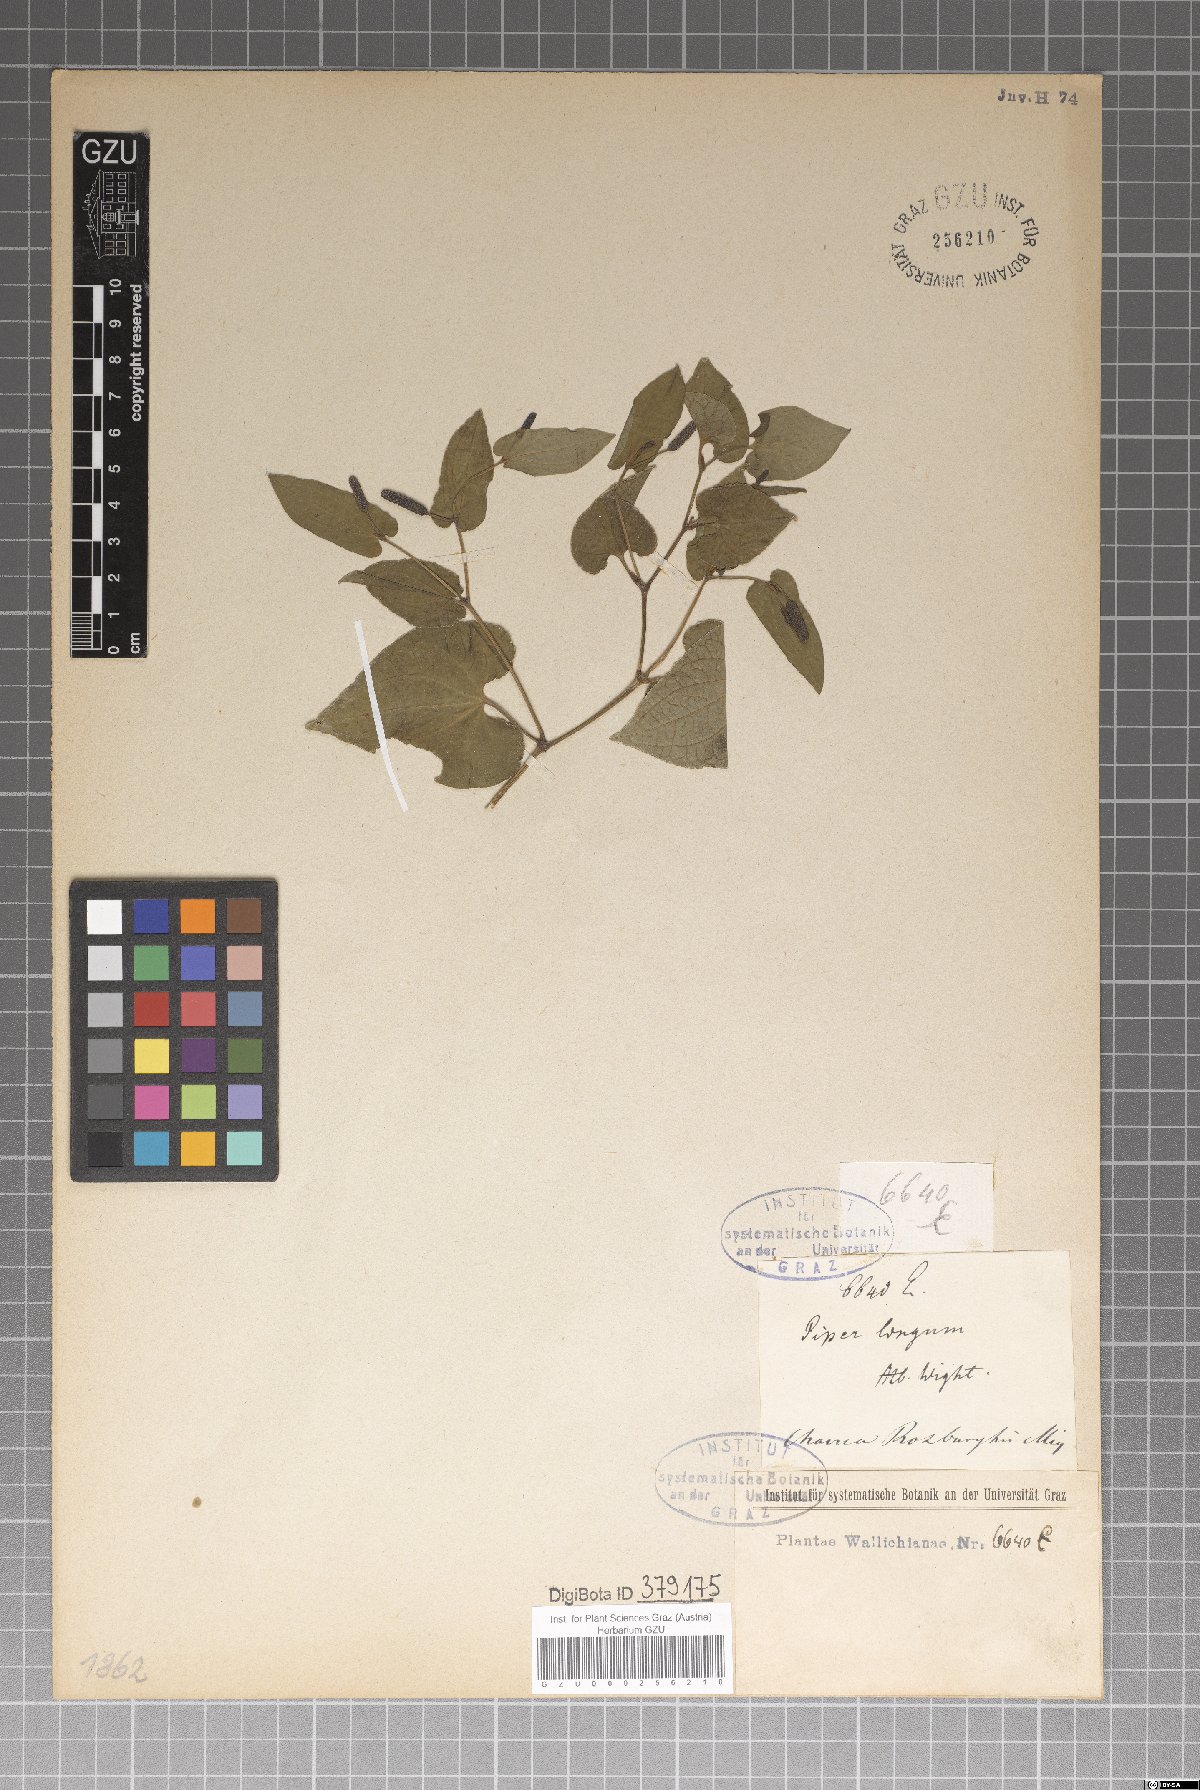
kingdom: Plantae
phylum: Tracheophyta
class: Magnoliopsida
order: Piperales
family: Piperaceae
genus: Piper
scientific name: Piper longum
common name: Long pepper
